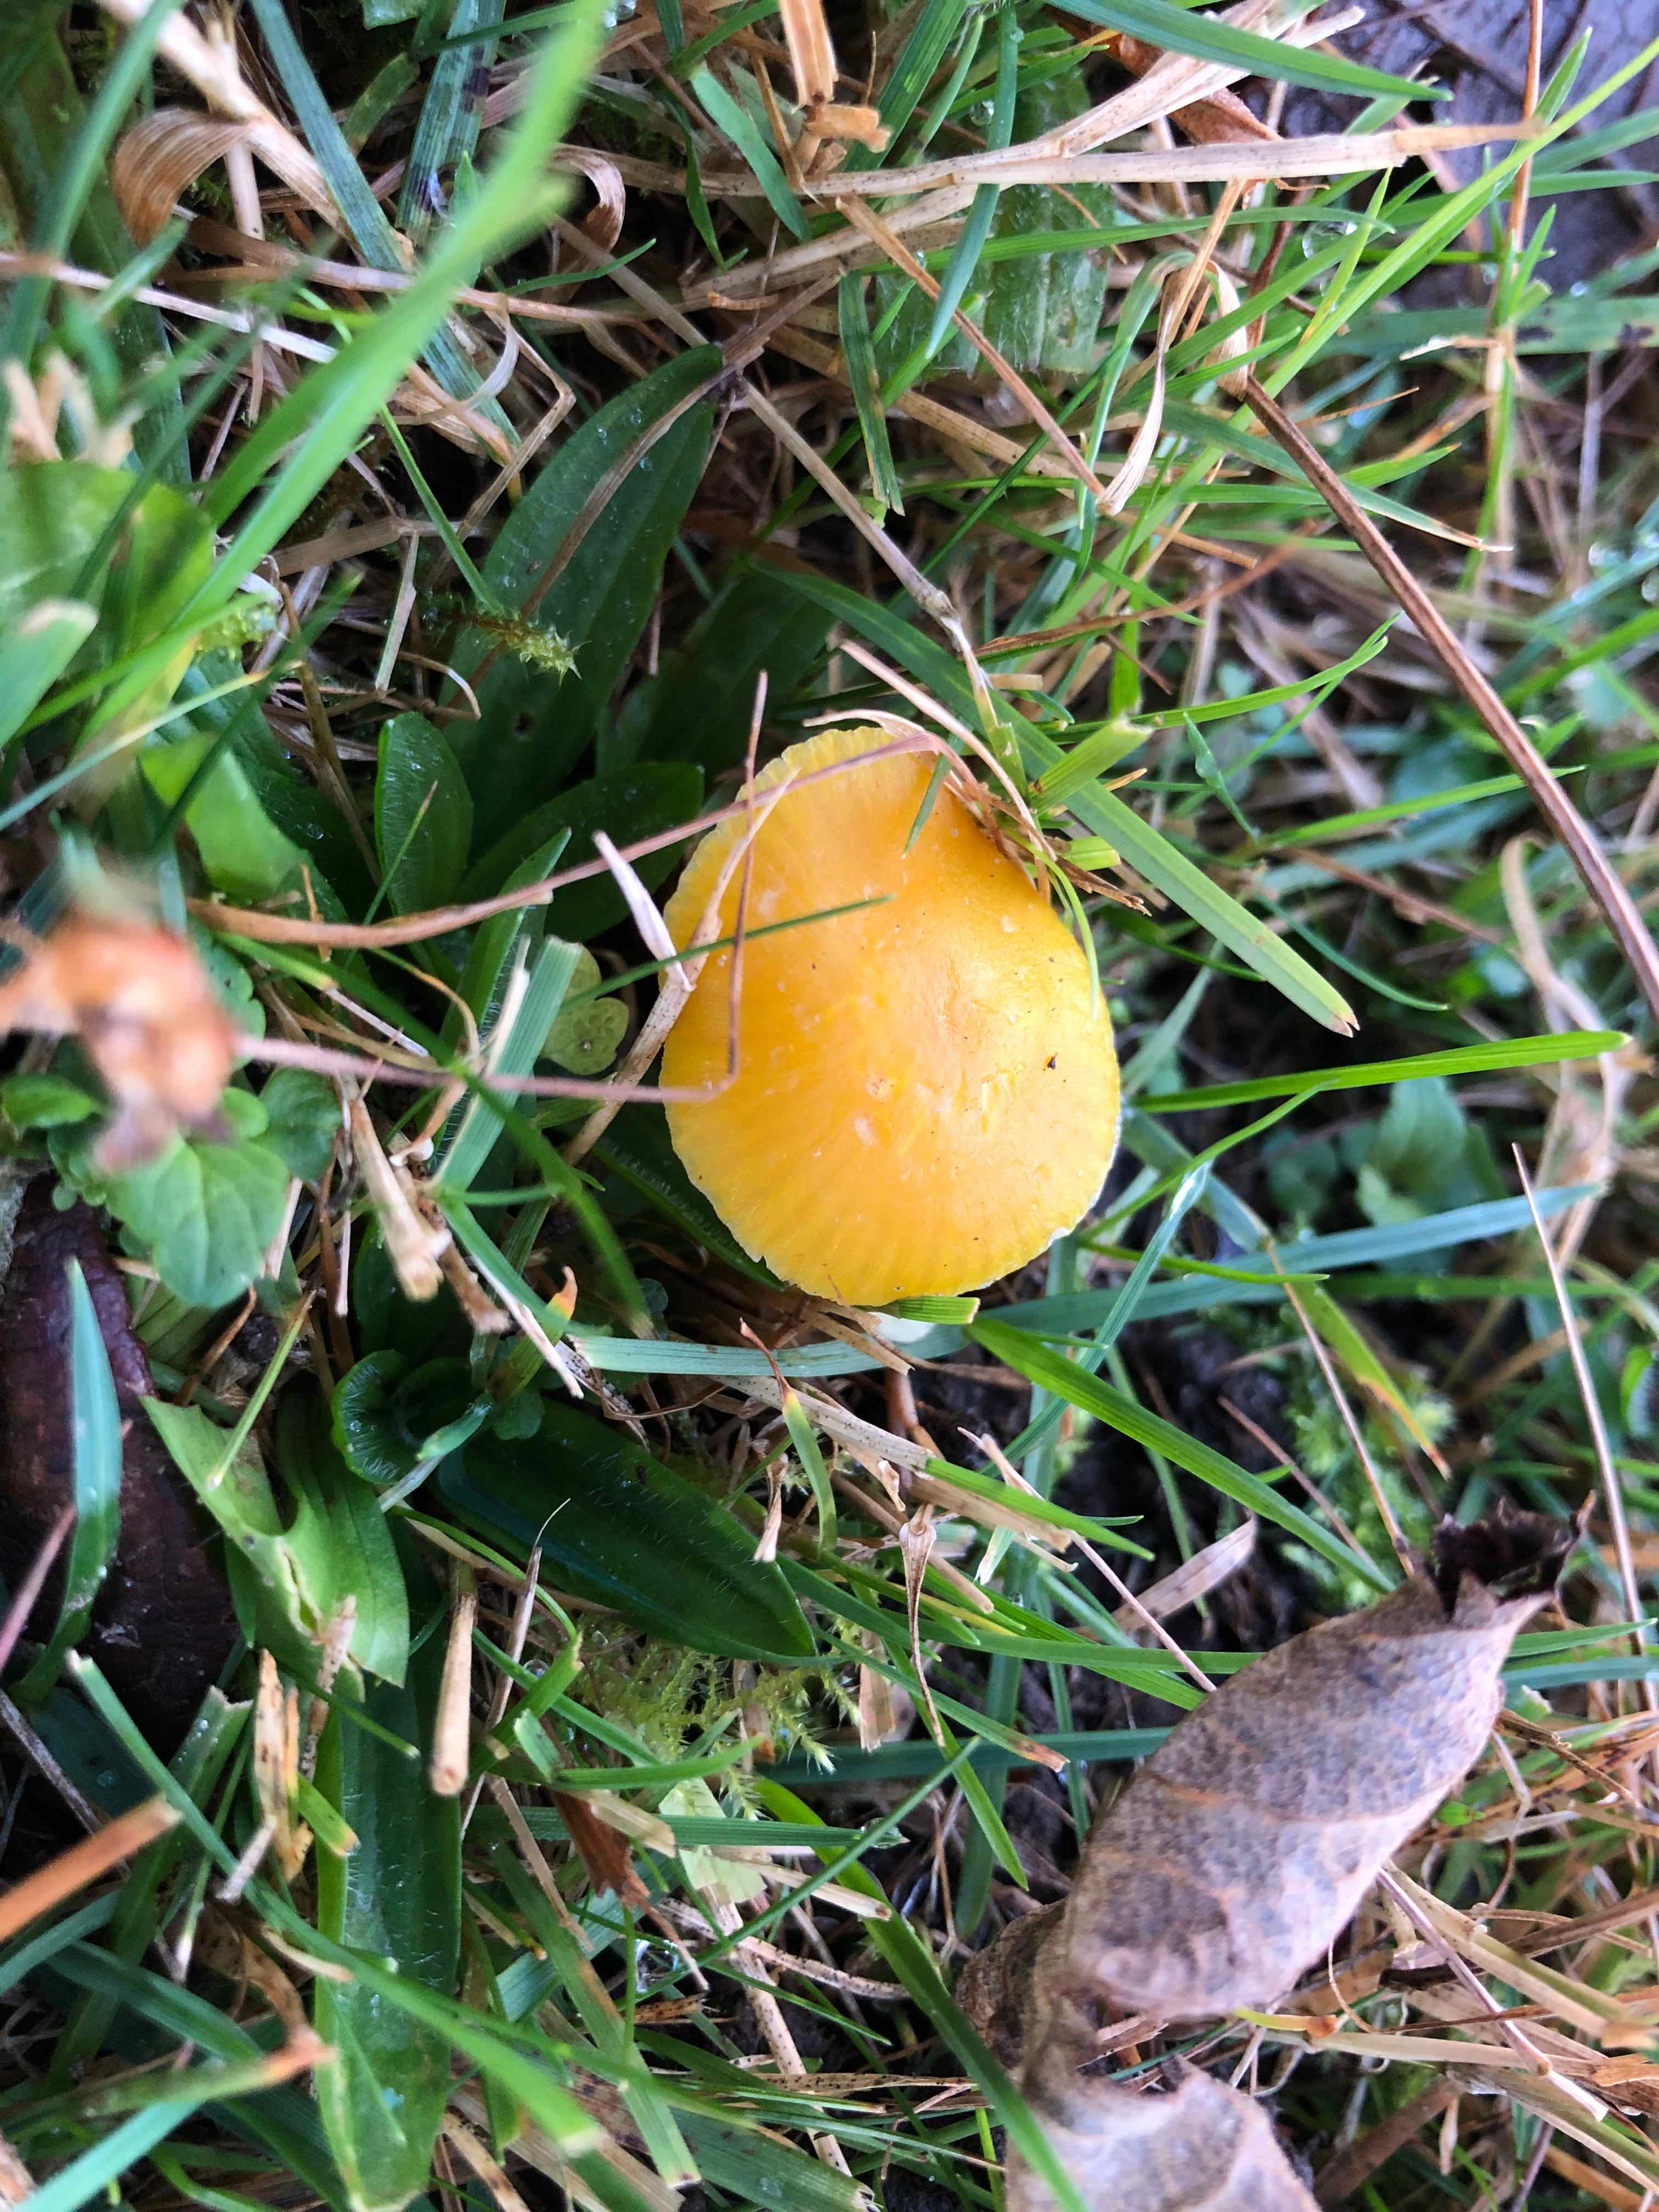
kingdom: Fungi
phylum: Basidiomycota
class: Agaricomycetes
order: Agaricales
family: Hygrophoraceae
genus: Hygrocybe
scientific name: Hygrocybe ceracea
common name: voksgul vokshat
